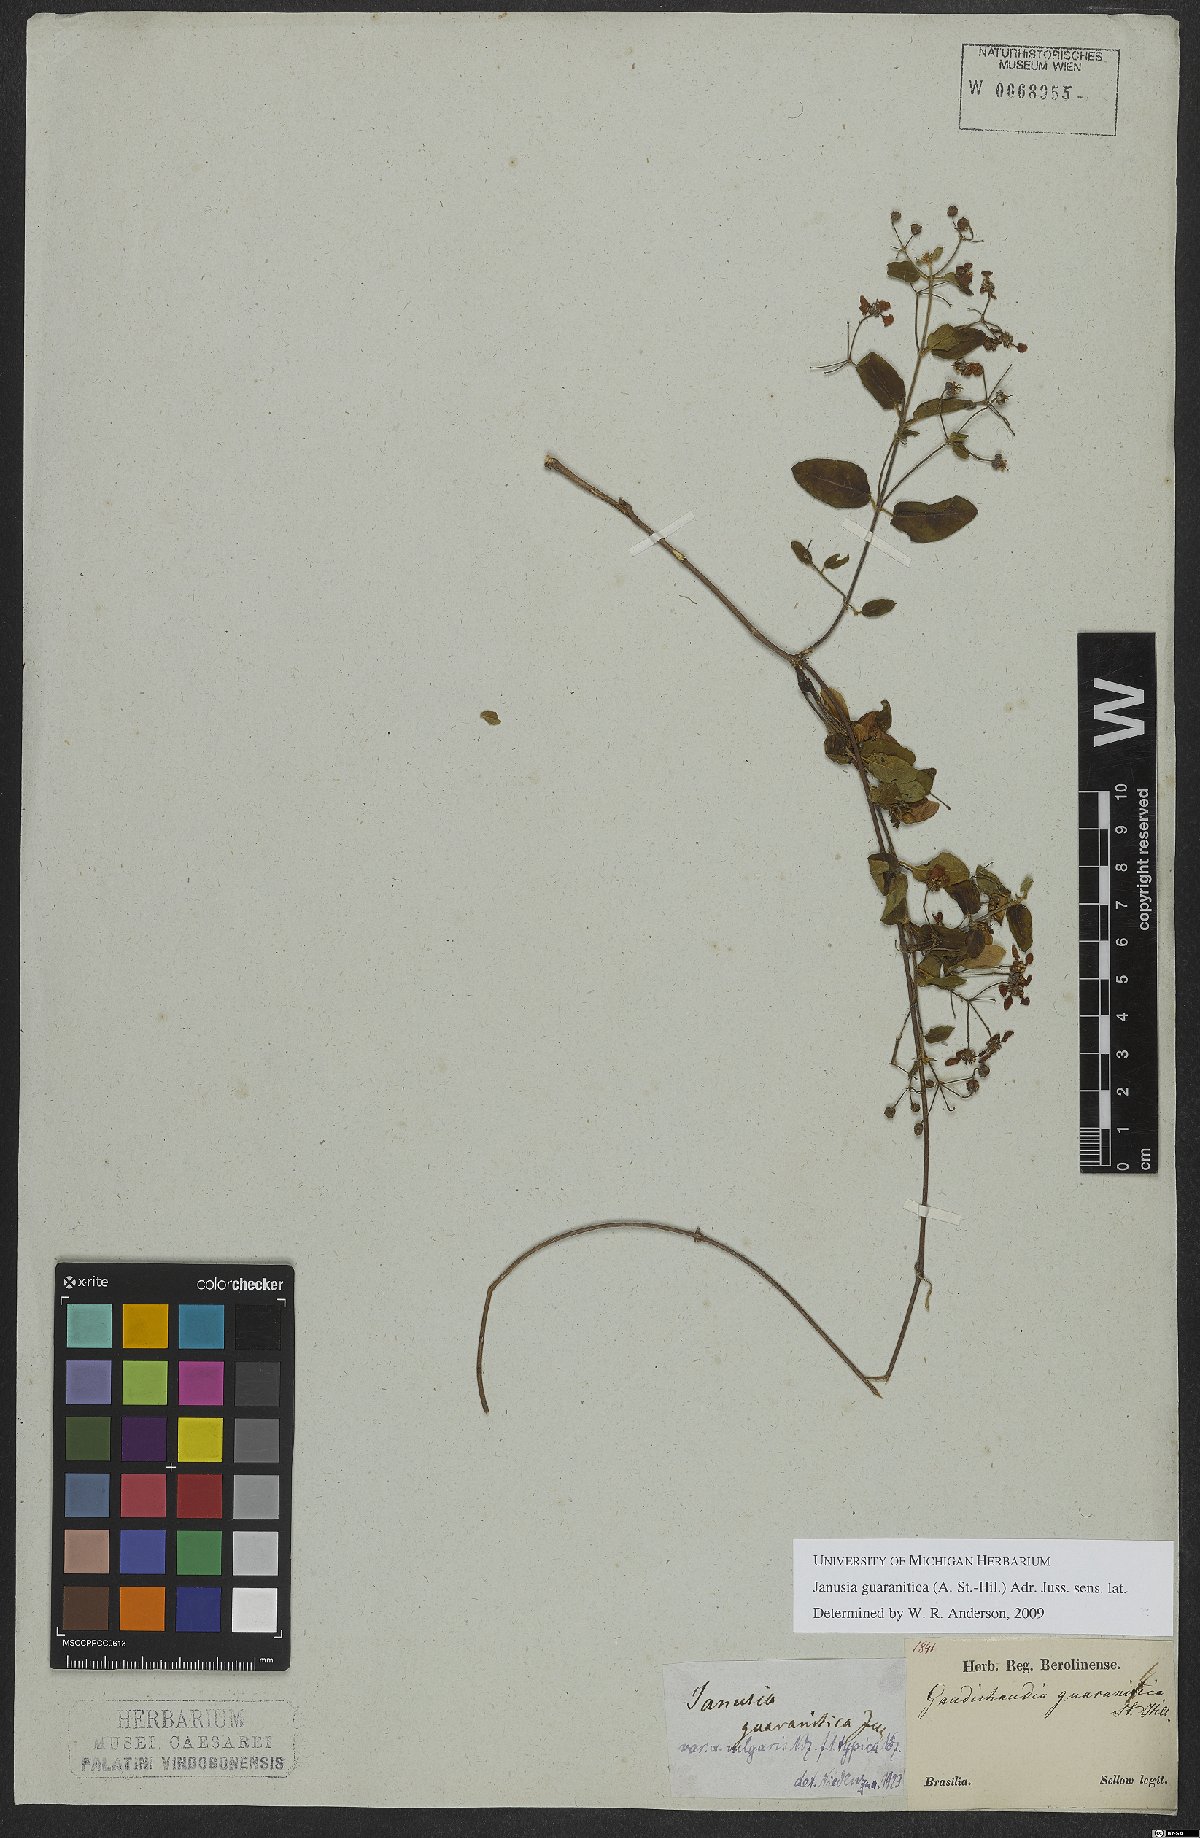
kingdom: Plantae
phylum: Tracheophyta
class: Magnoliopsida
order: Malpighiales
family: Malpighiaceae
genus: Janusia
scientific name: Janusia janusioides
